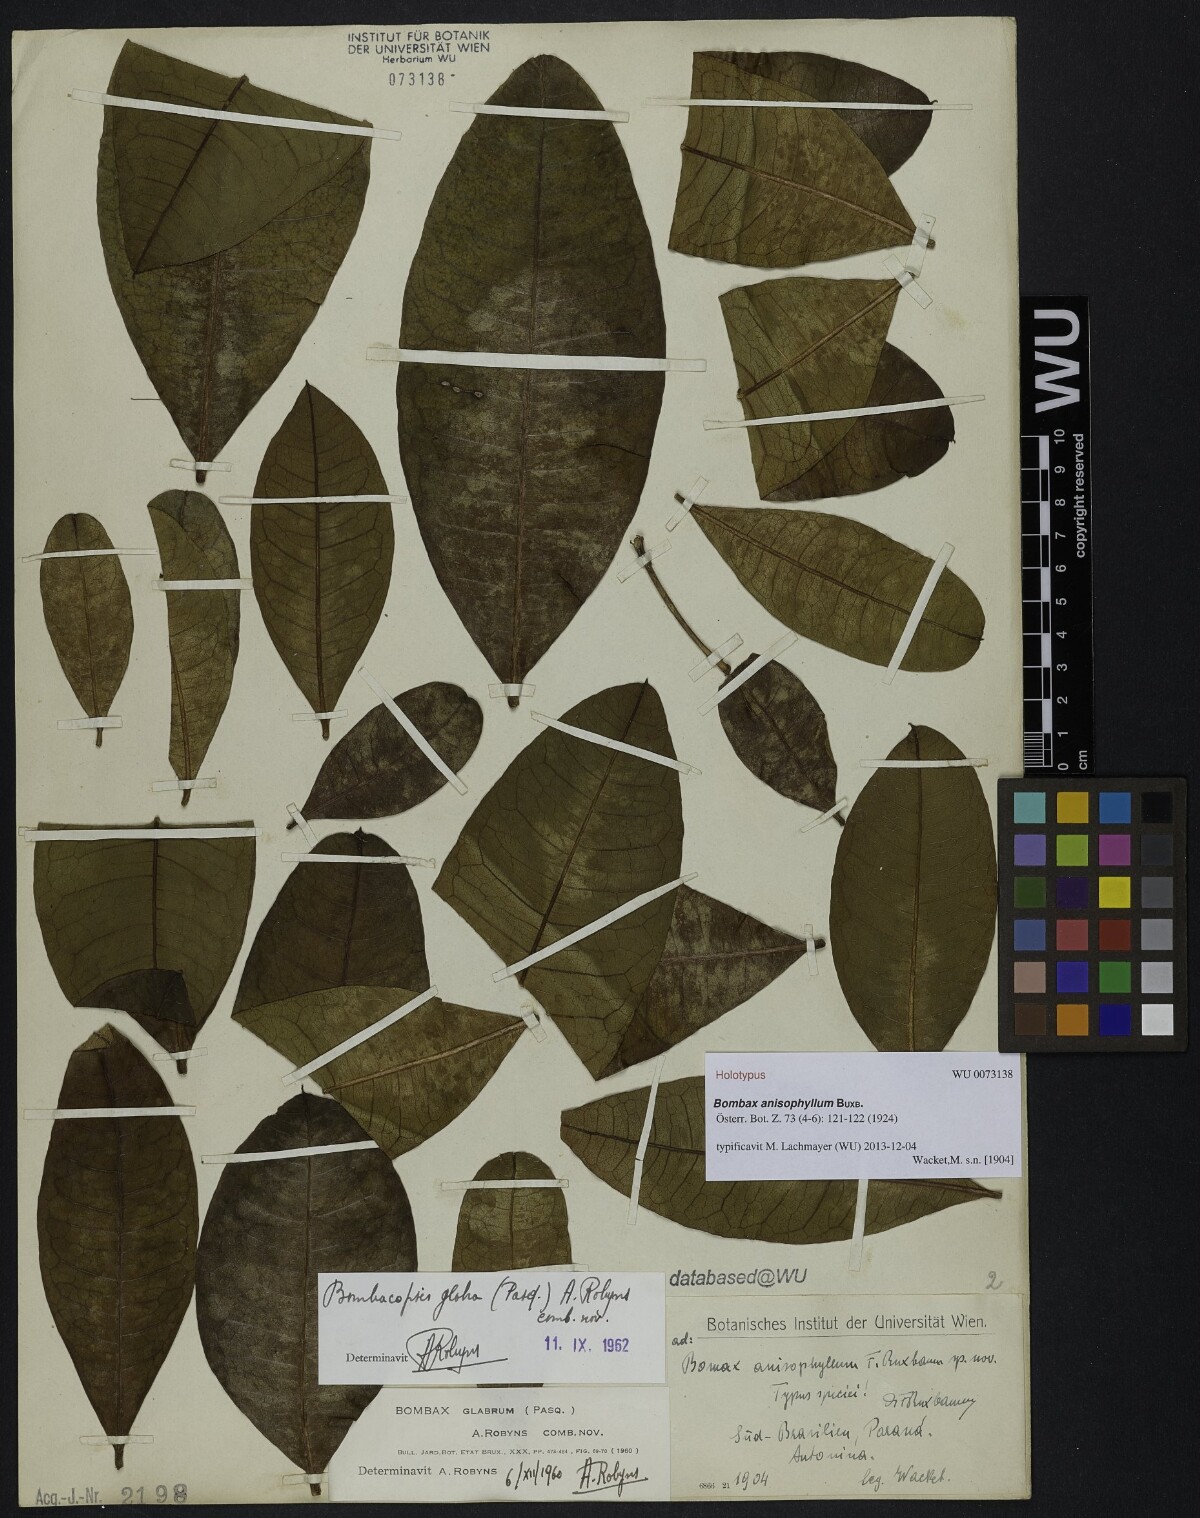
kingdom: Plantae
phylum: Tracheophyta
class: Magnoliopsida
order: Malvales
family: Malvaceae
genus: Pachira
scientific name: Pachira glabra
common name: Moneytree
